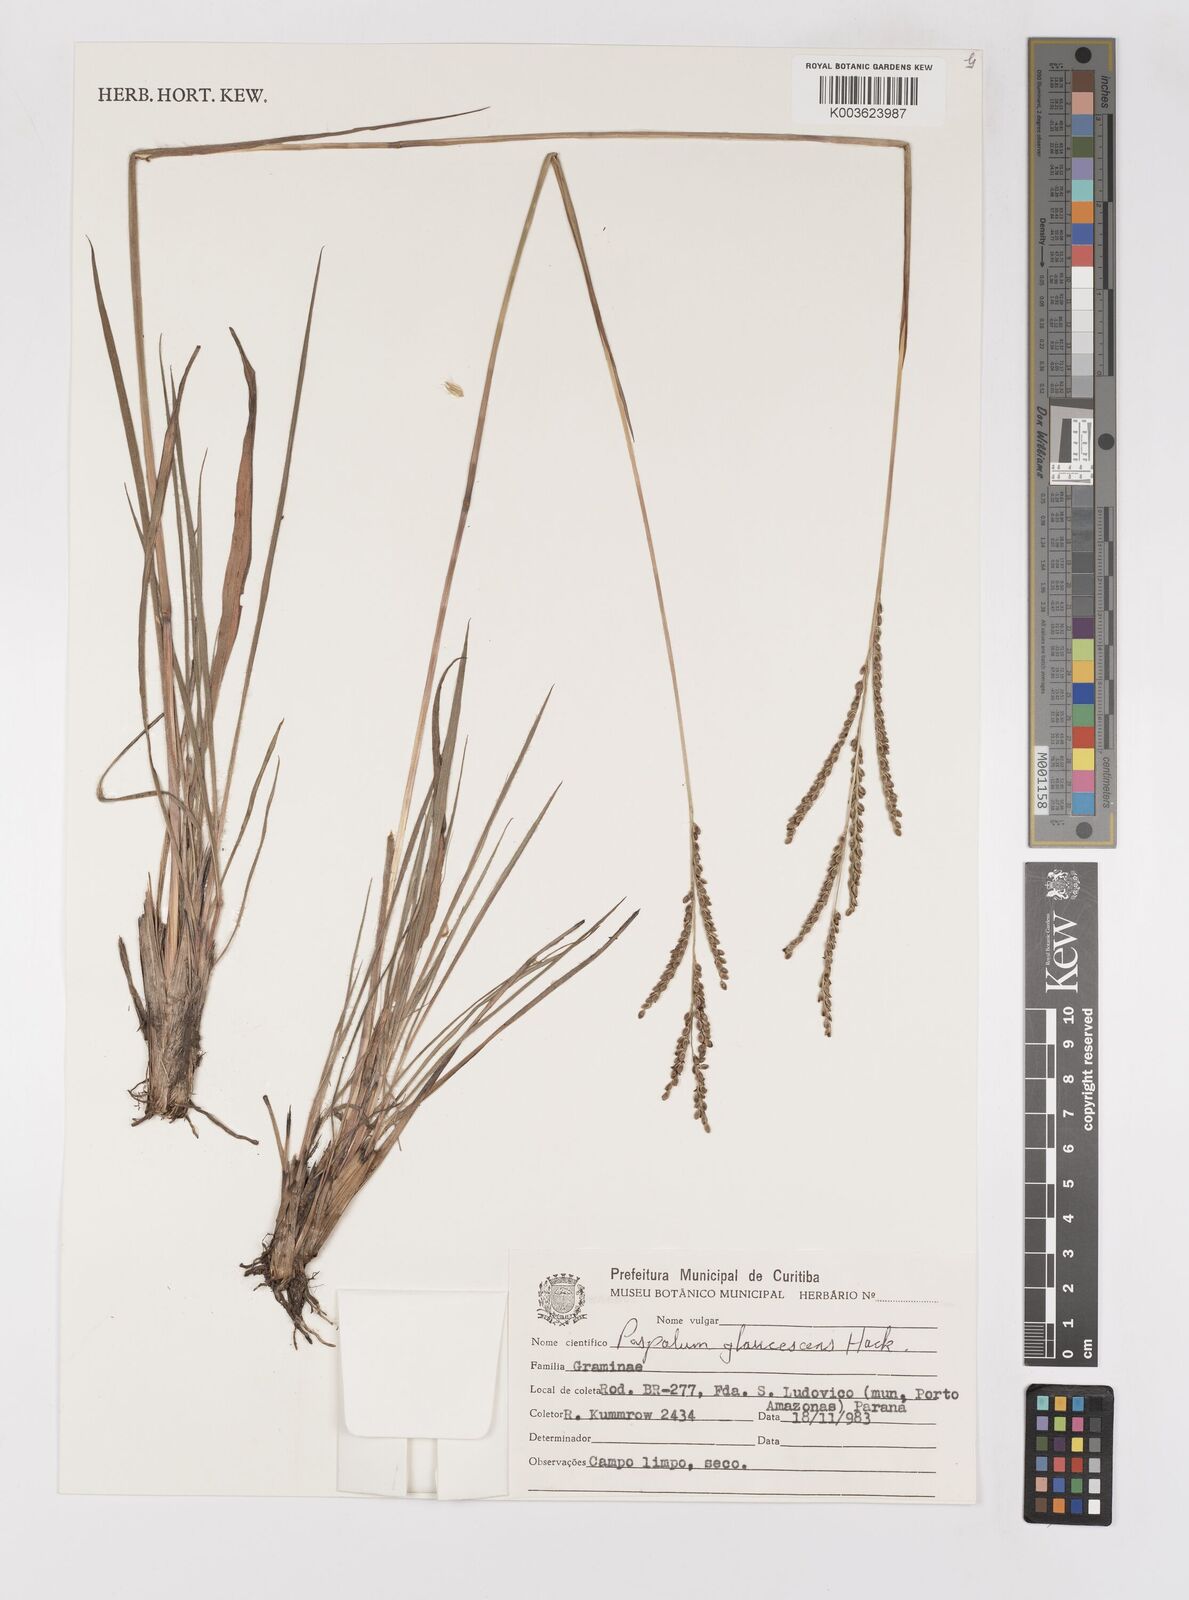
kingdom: Plantae
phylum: Tracheophyta
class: Liliopsida
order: Poales
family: Poaceae
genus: Paspalum
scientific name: Paspalum glaucescens
